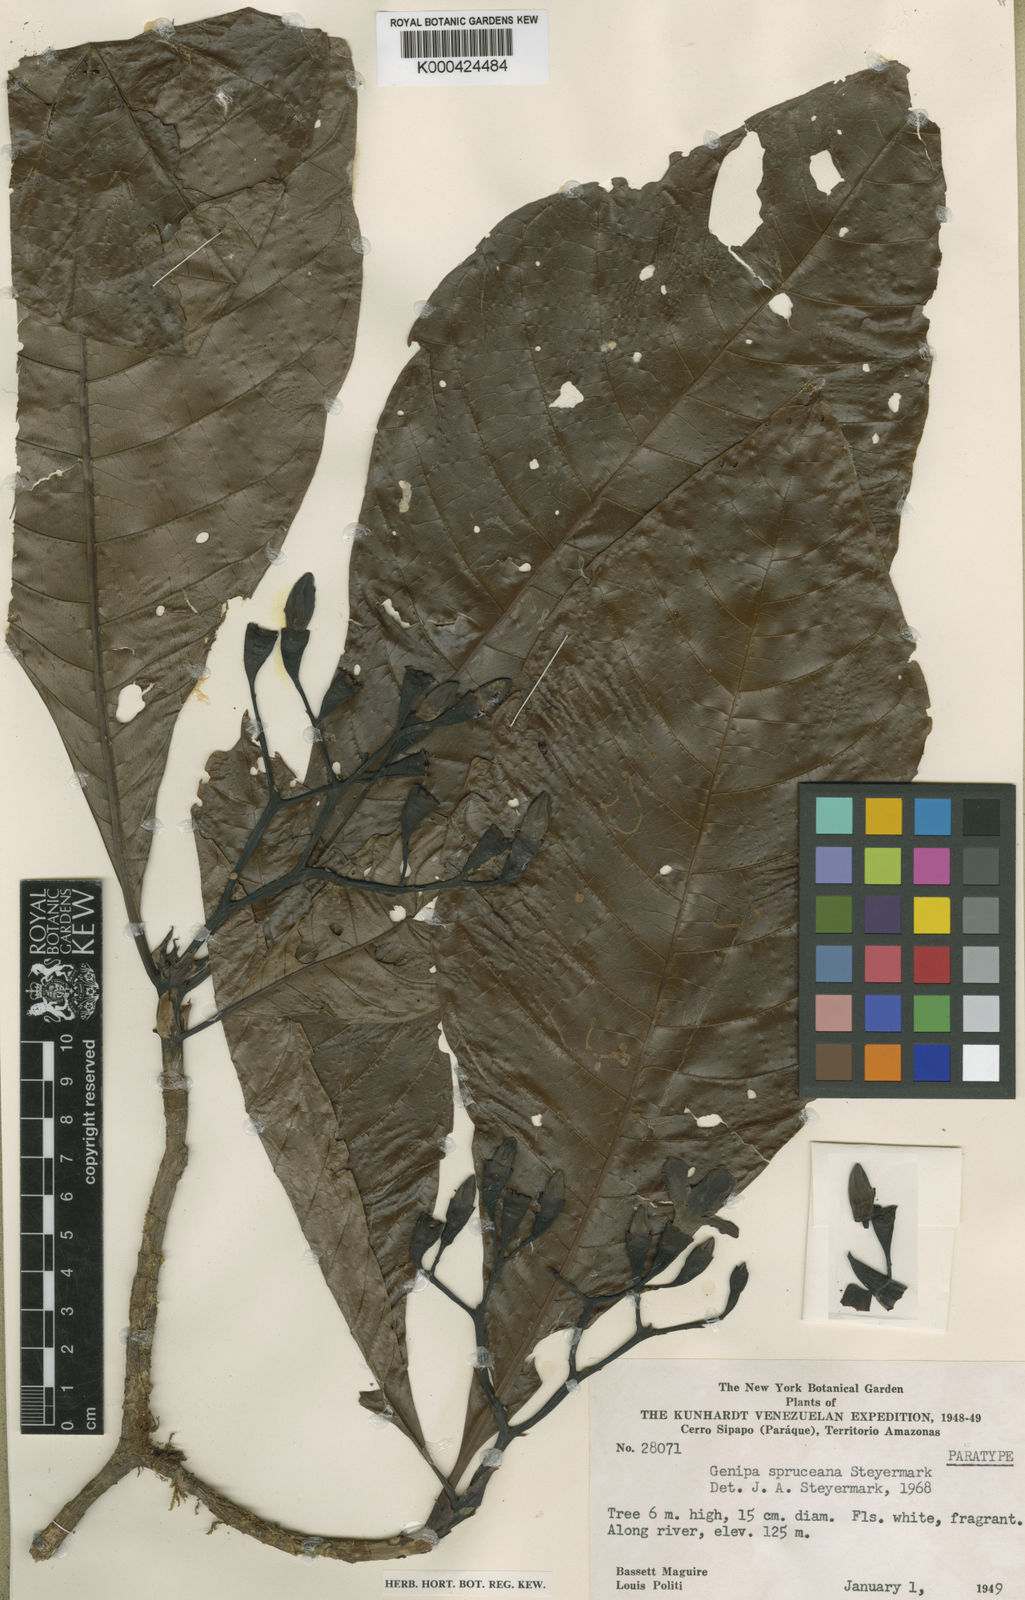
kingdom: Plantae
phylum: Tracheophyta
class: Magnoliopsida
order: Gentianales
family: Rubiaceae
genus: Genipa
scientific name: Genipa americana
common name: Genipap
